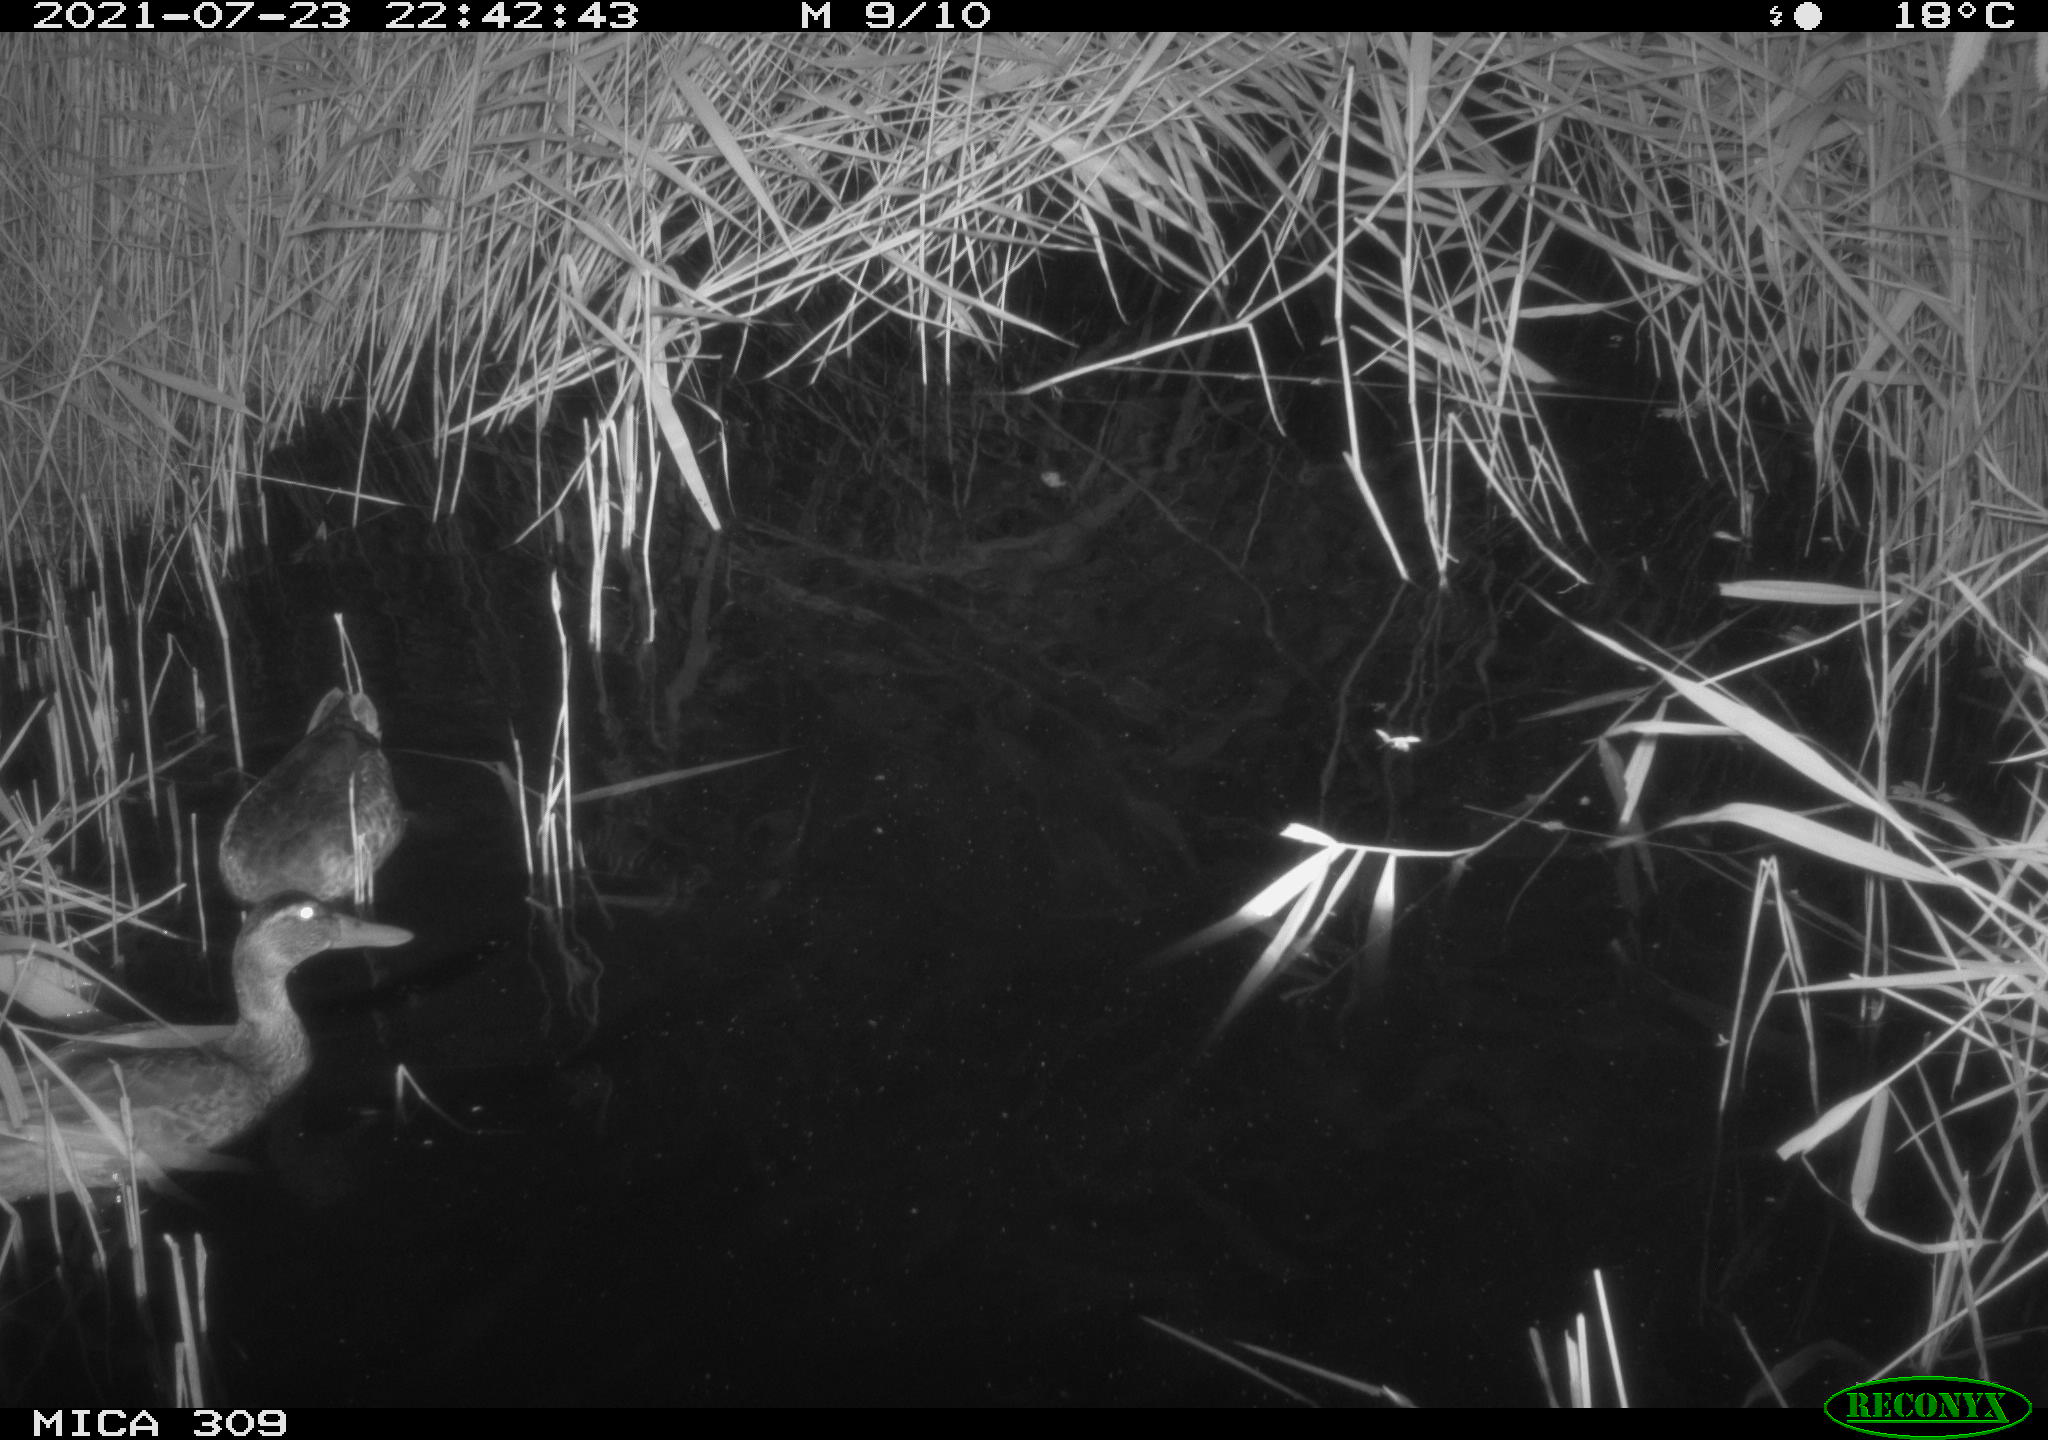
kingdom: Animalia
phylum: Chordata
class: Aves
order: Gruiformes
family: Rallidae
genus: Gallinula
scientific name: Gallinula chloropus
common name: Common moorhen
